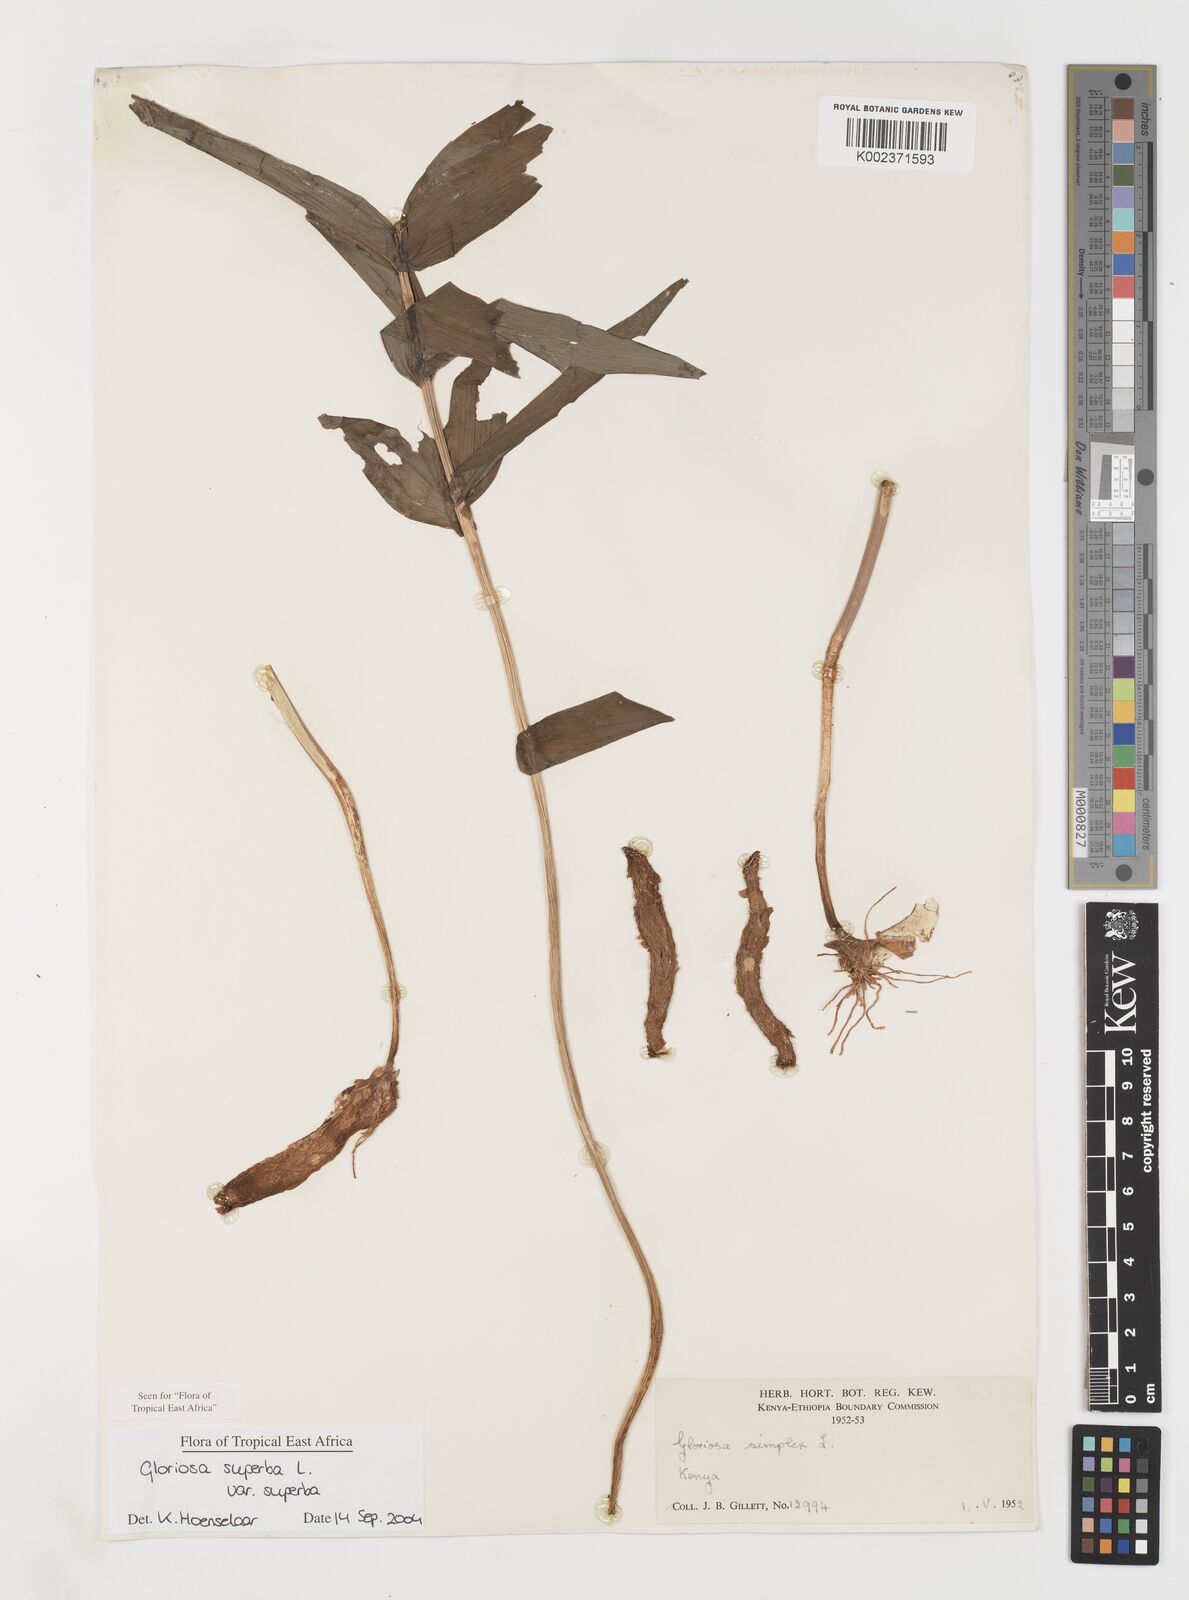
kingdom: Plantae
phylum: Tracheophyta
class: Liliopsida
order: Liliales
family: Colchicaceae
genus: Gloriosa
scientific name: Gloriosa simplex
